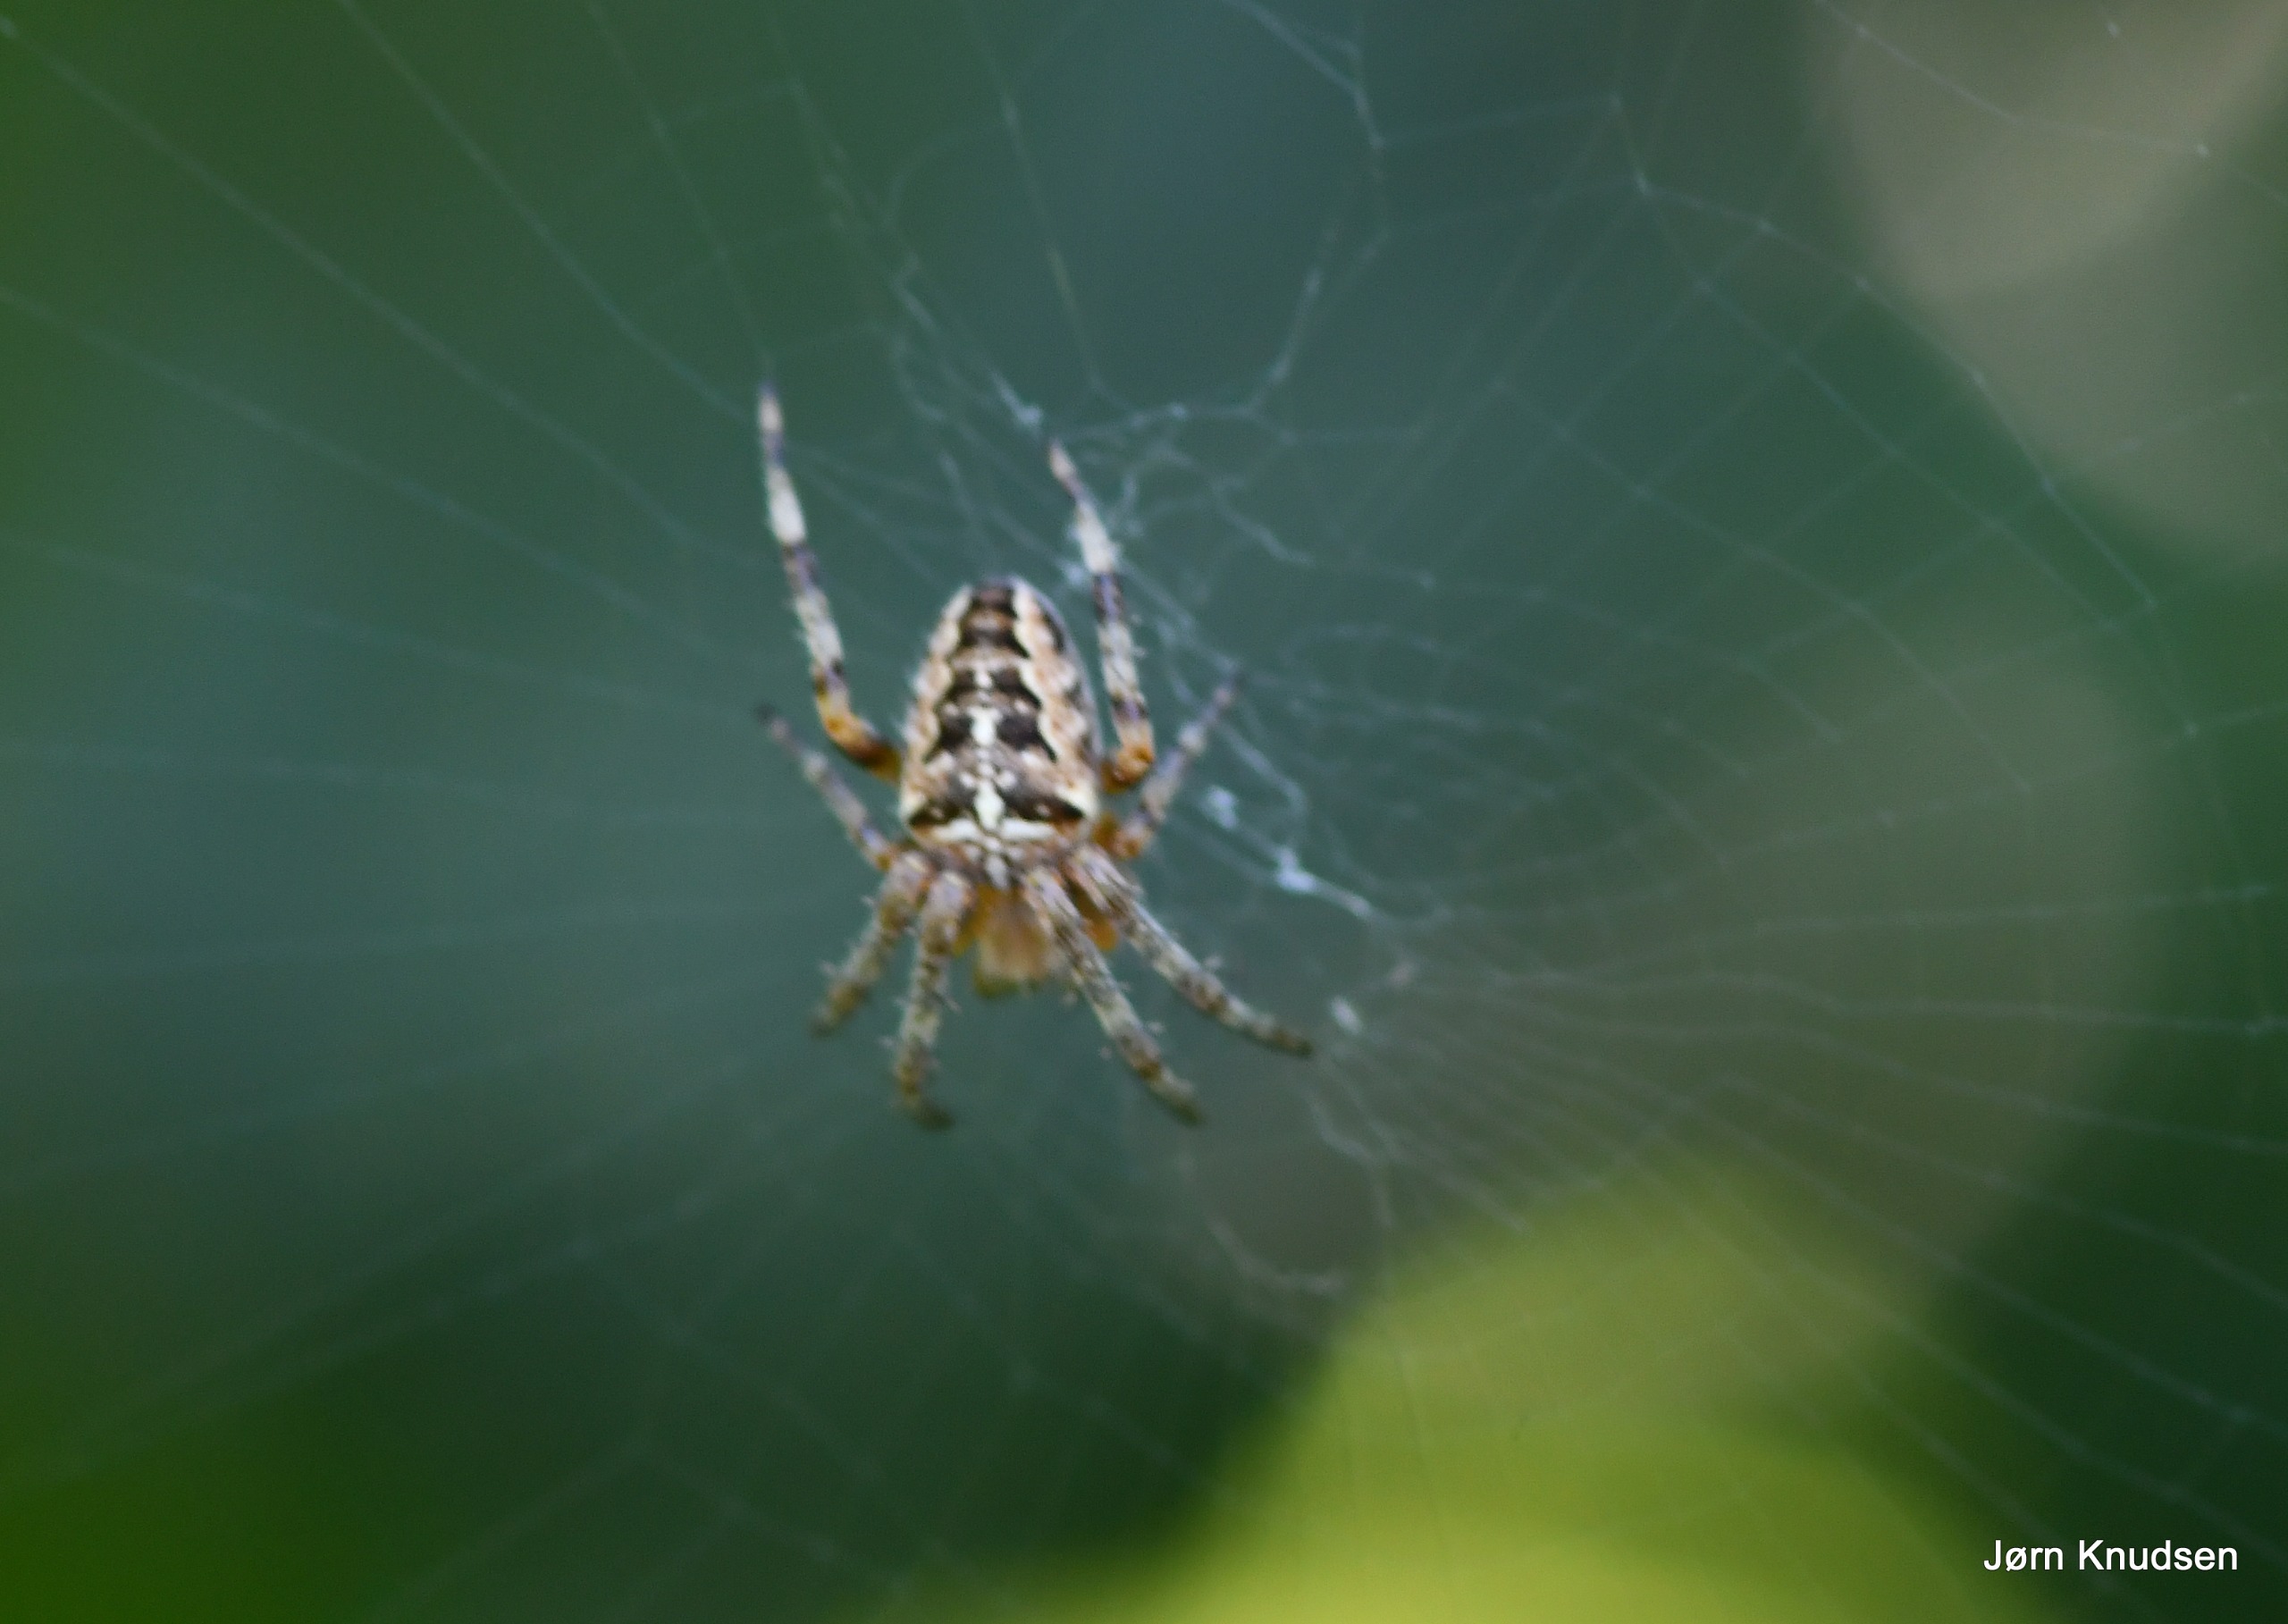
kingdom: Animalia
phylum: Arthropoda
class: Arachnida
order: Araneae
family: Araneidae
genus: Araneus
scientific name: Araneus diadematus
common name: Korsedderkop
